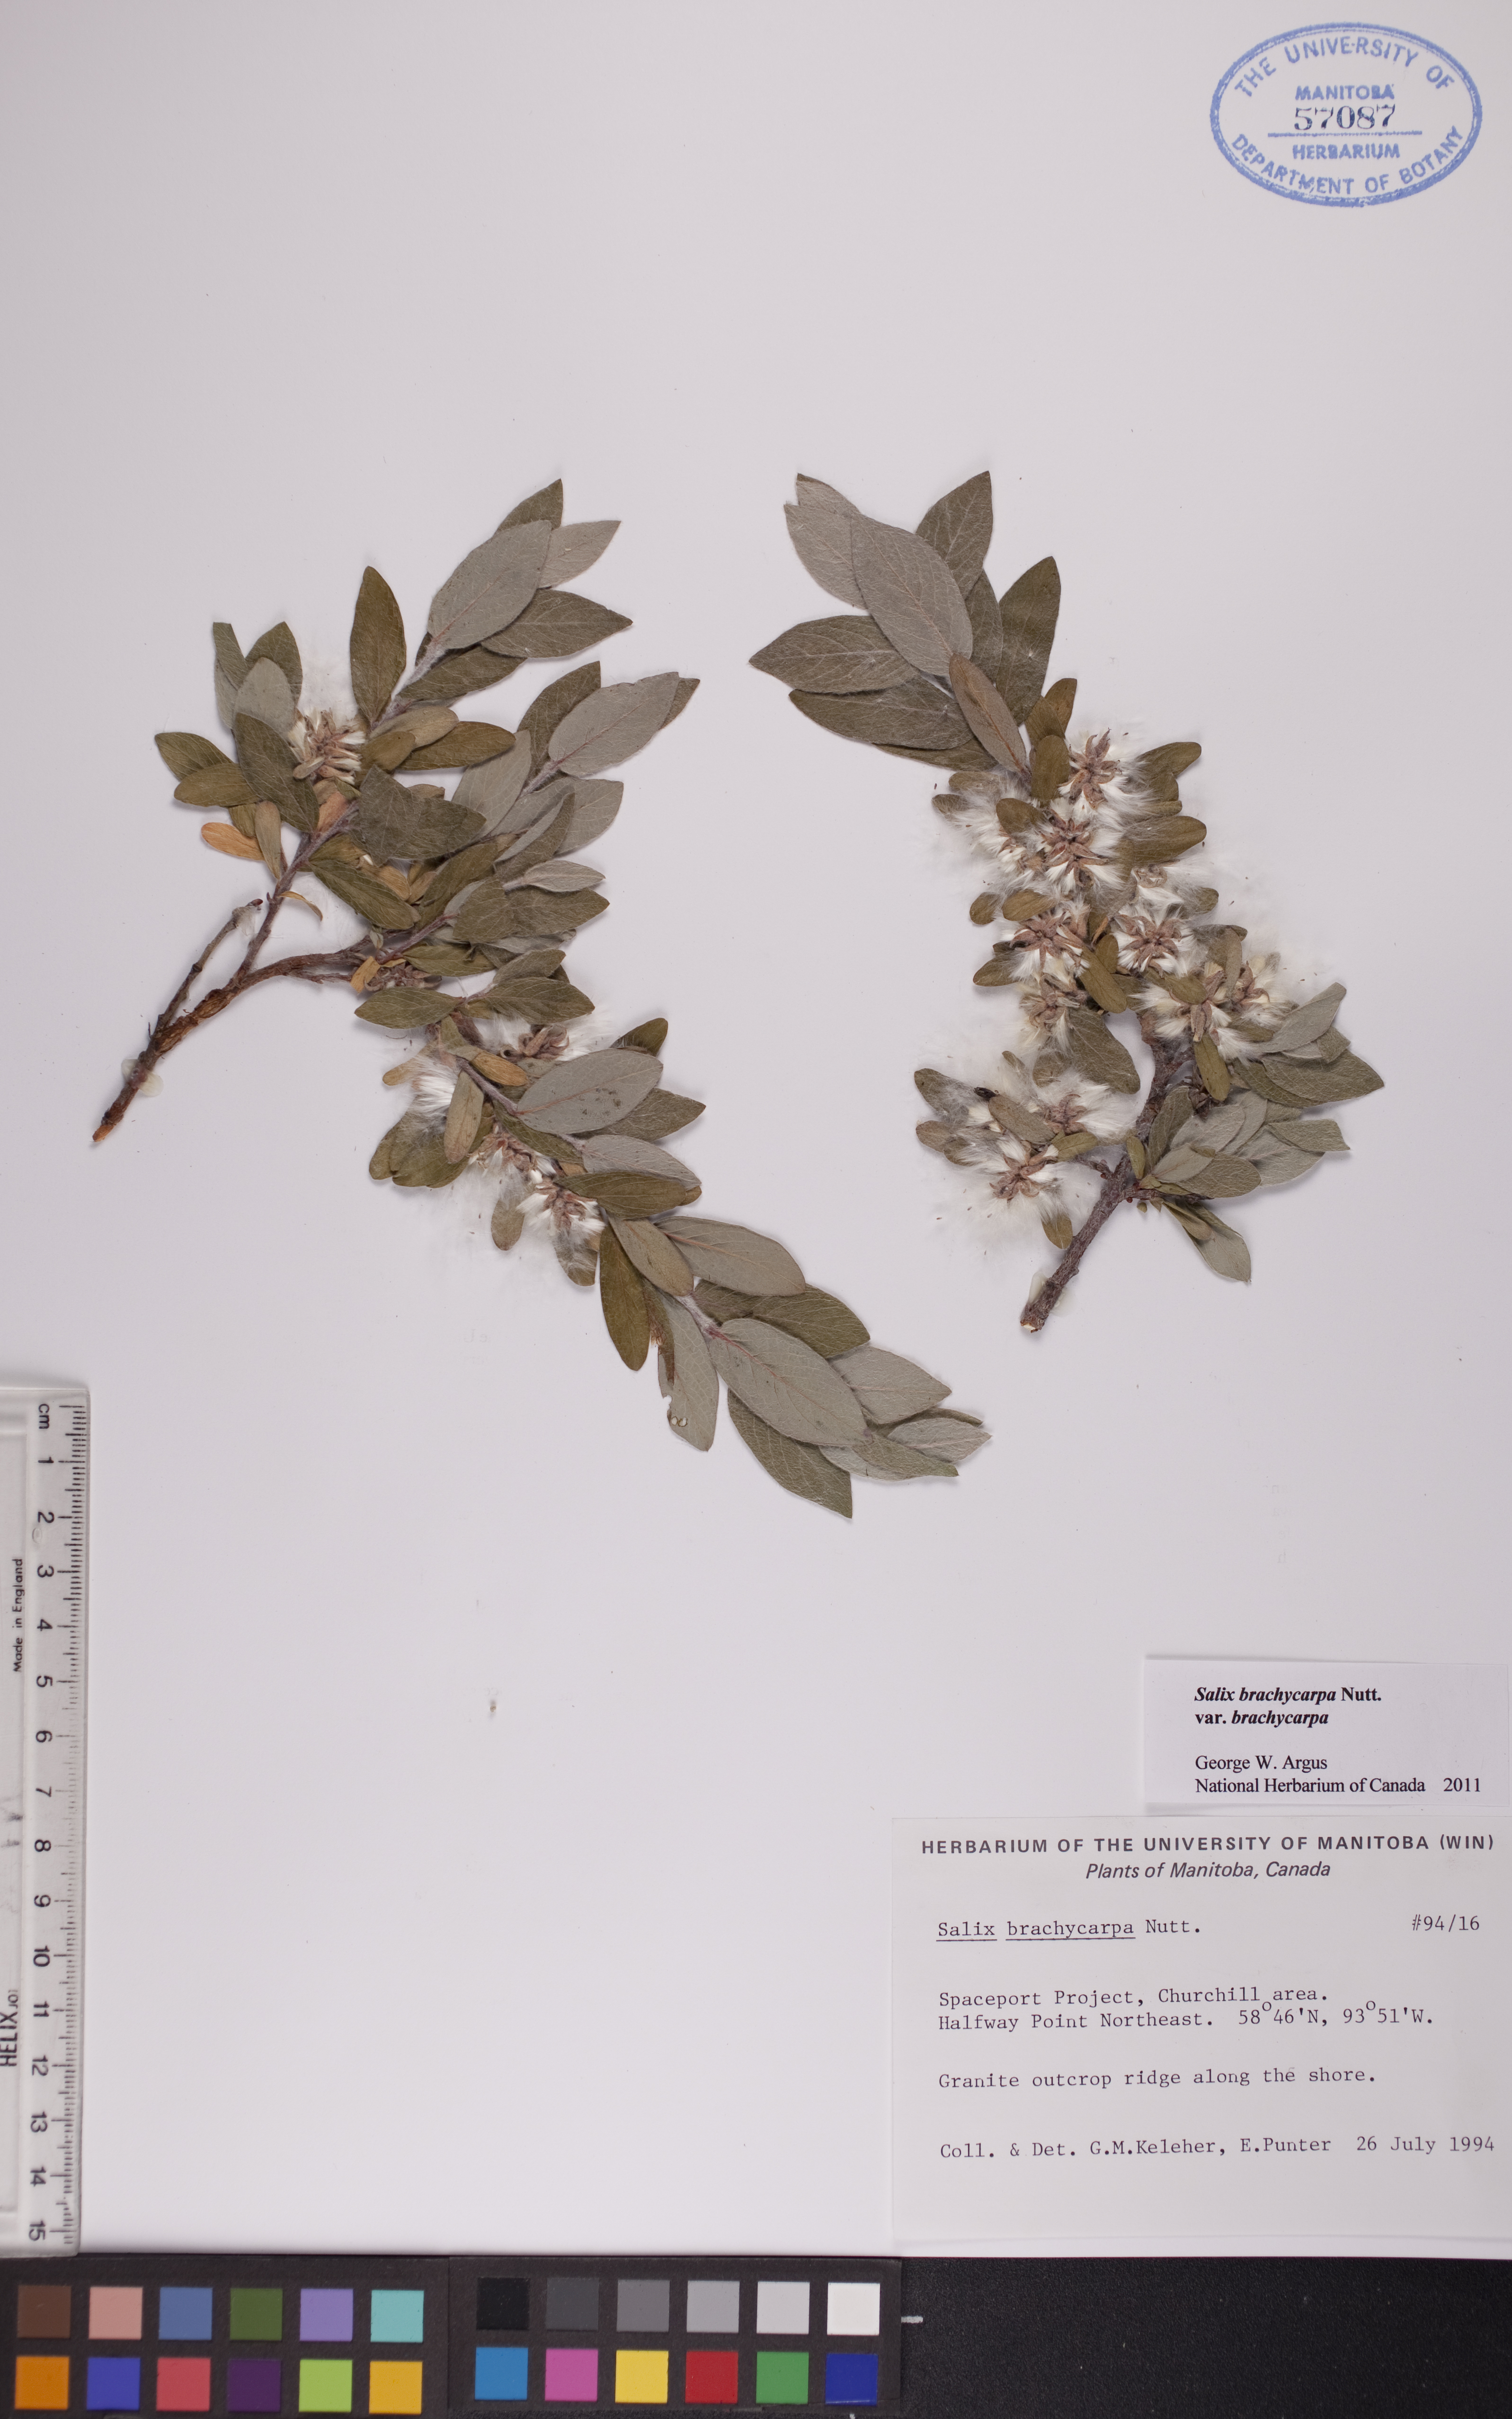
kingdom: Plantae
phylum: Tracheophyta
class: Magnoliopsida
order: Malpighiales
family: Salicaceae
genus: Salix
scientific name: Salix brachycarpa
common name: Barren-ground willow
